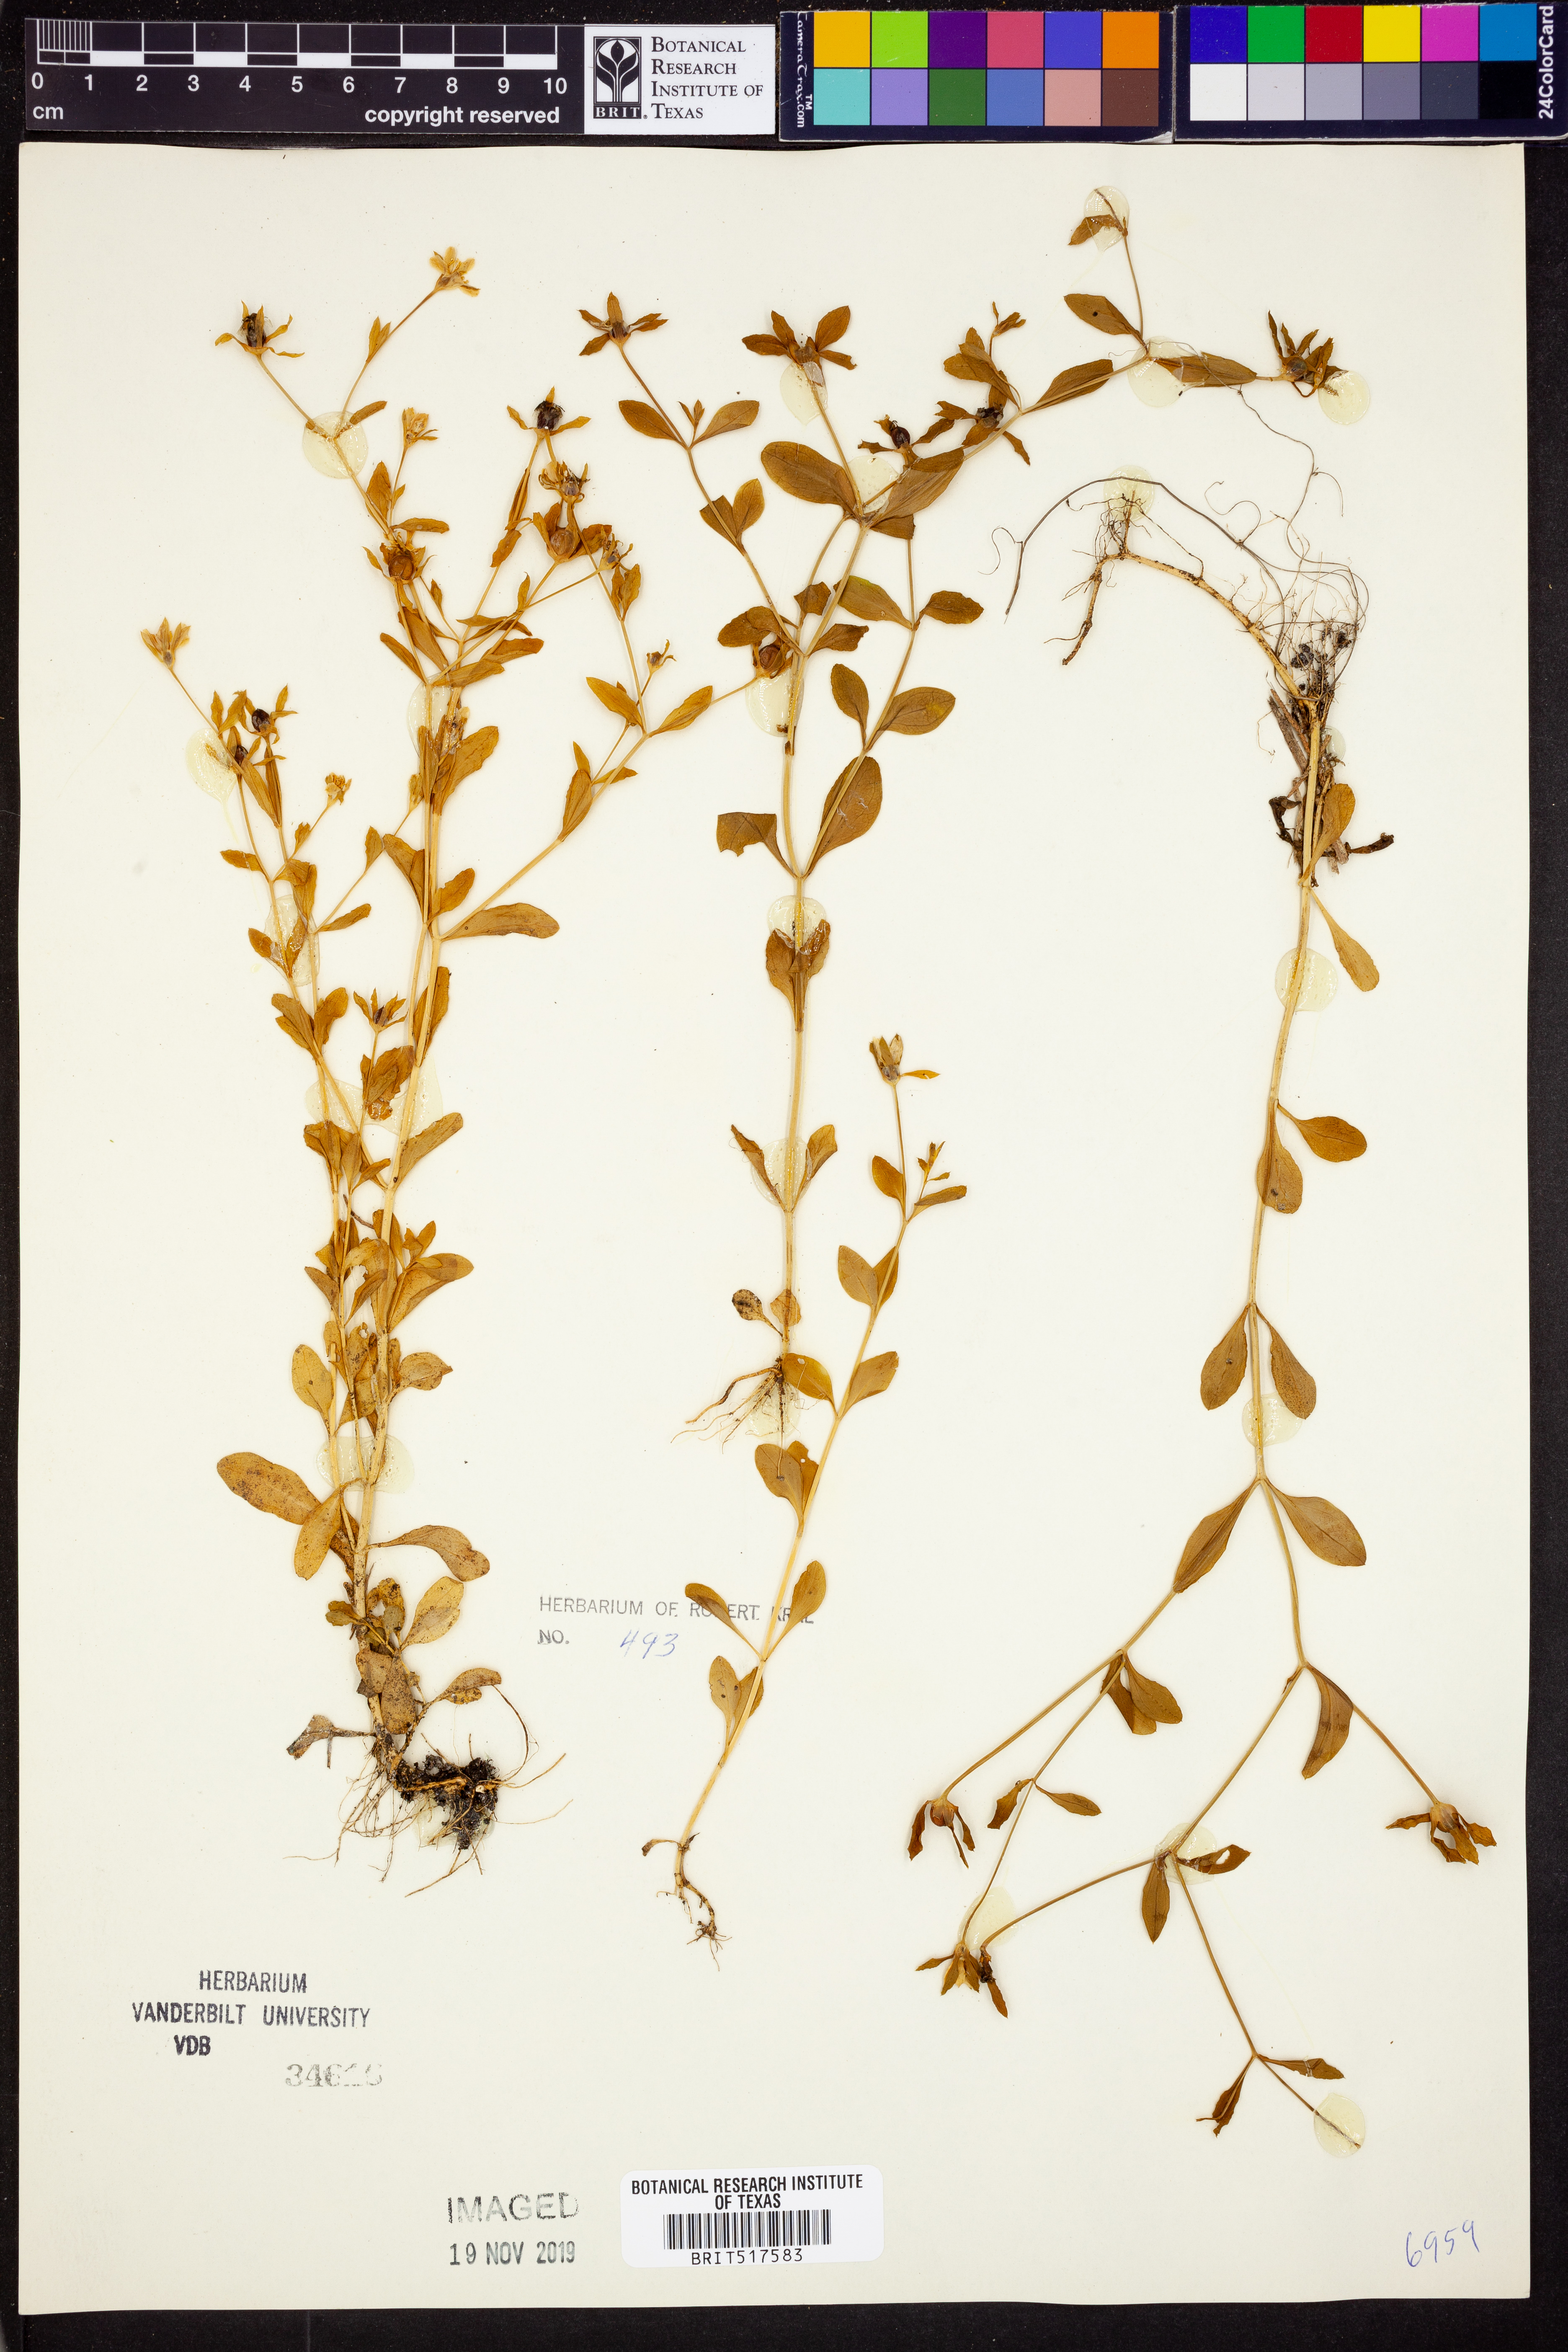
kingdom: Plantae
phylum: Tracheophyta
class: Magnoliopsida
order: Gentianales
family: Gentianaceae
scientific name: Gentianaceae
